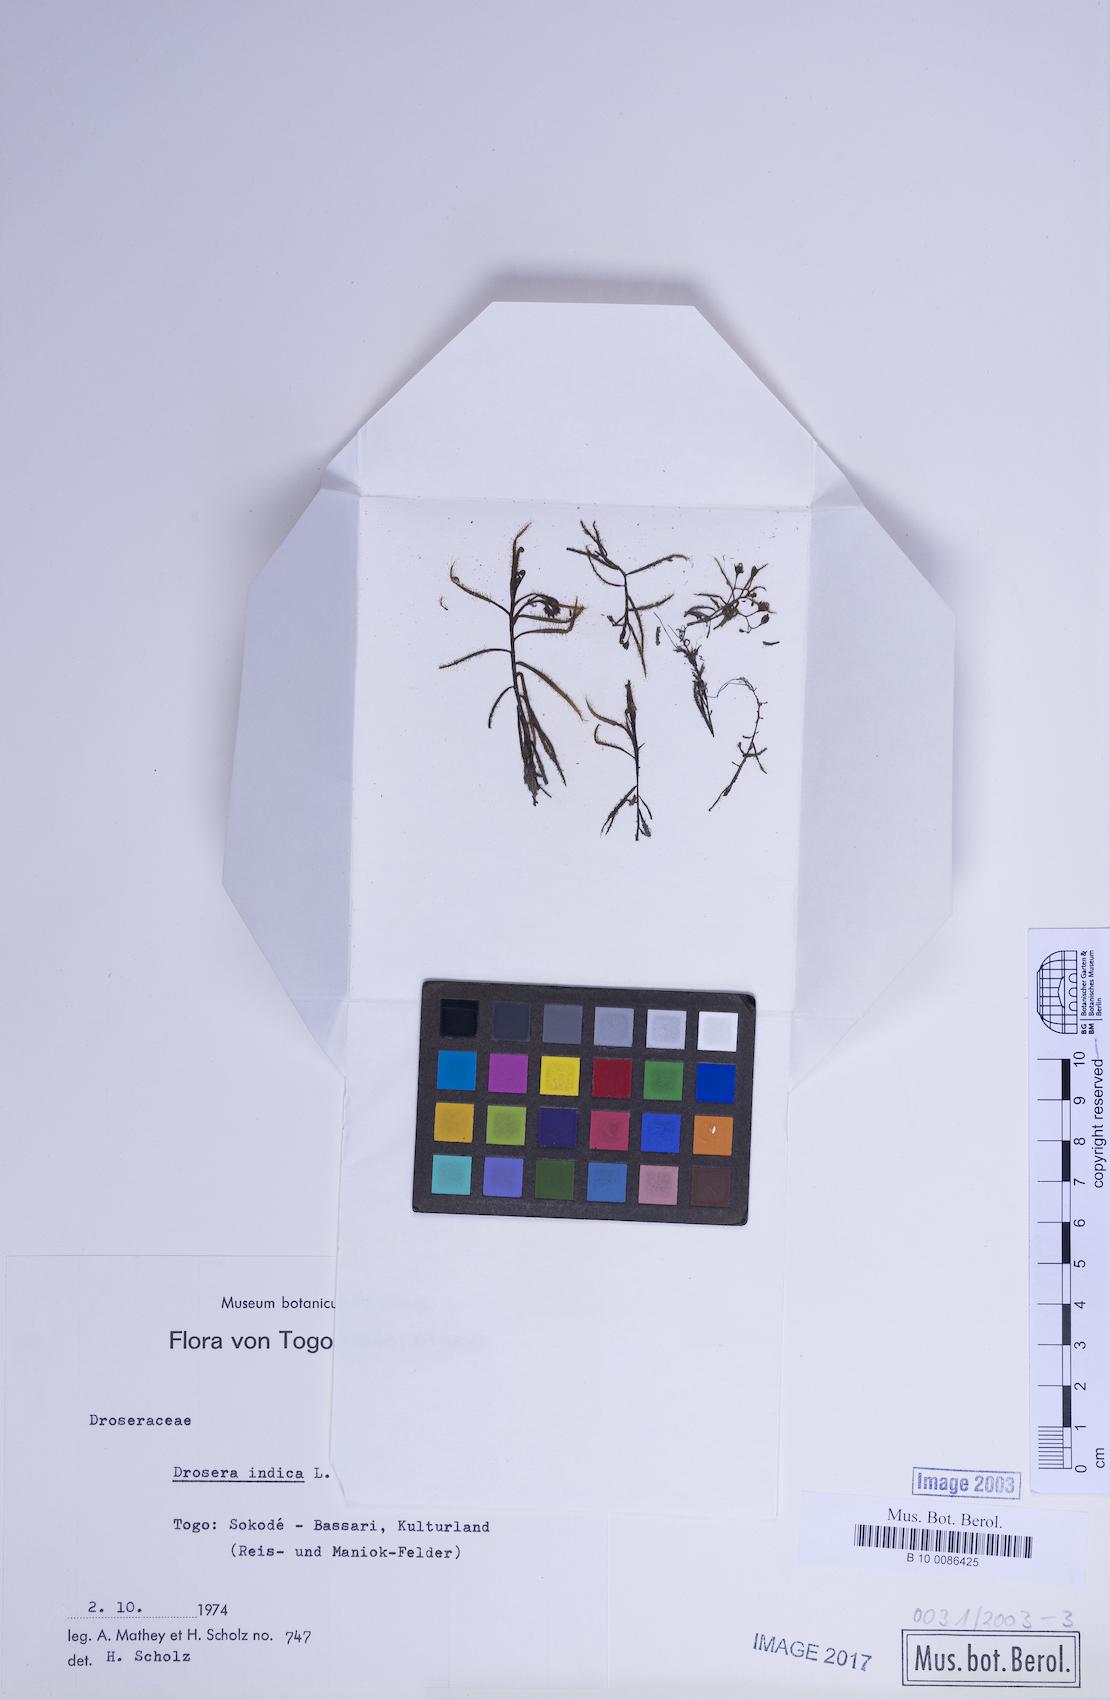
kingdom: Plantae
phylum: Tracheophyta
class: Magnoliopsida
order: Caryophyllales
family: Droseraceae
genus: Drosera
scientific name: Drosera indica
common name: Indian sundew
